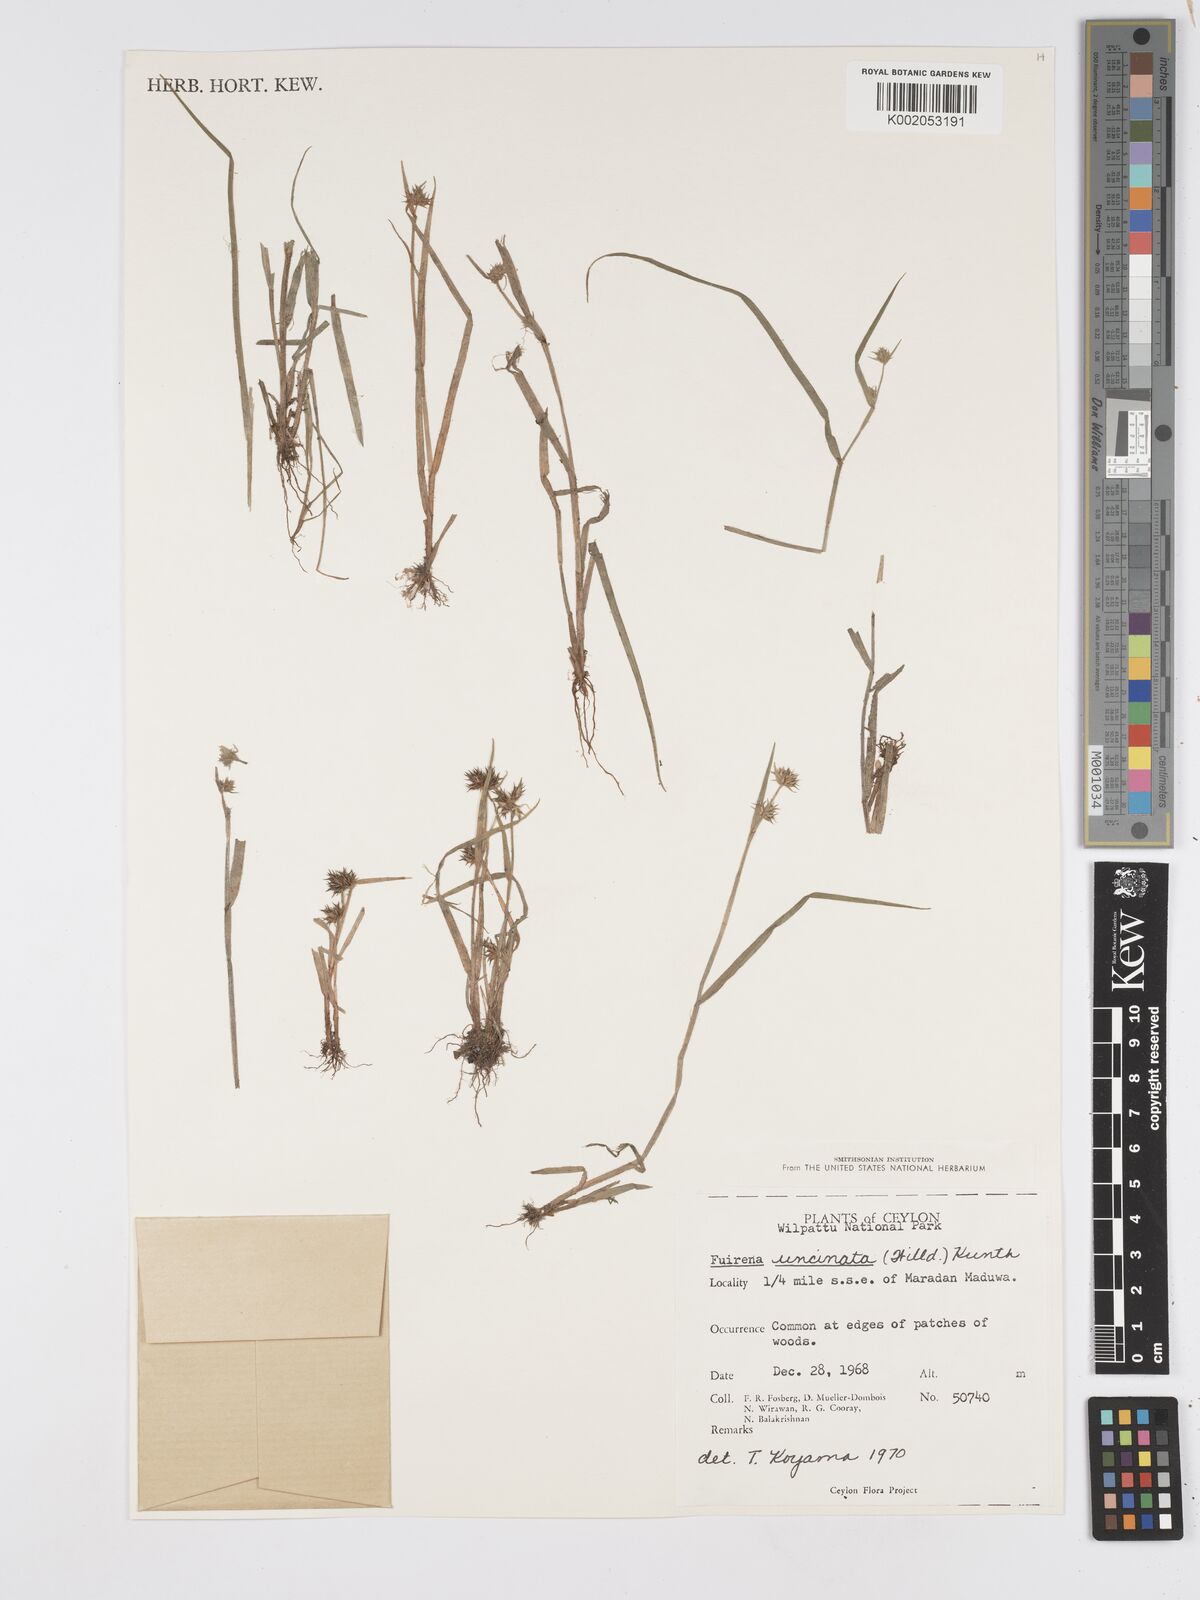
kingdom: Plantae
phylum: Tracheophyta
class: Liliopsida
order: Poales
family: Cyperaceae
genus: Fuirena
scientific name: Fuirena uncinata
